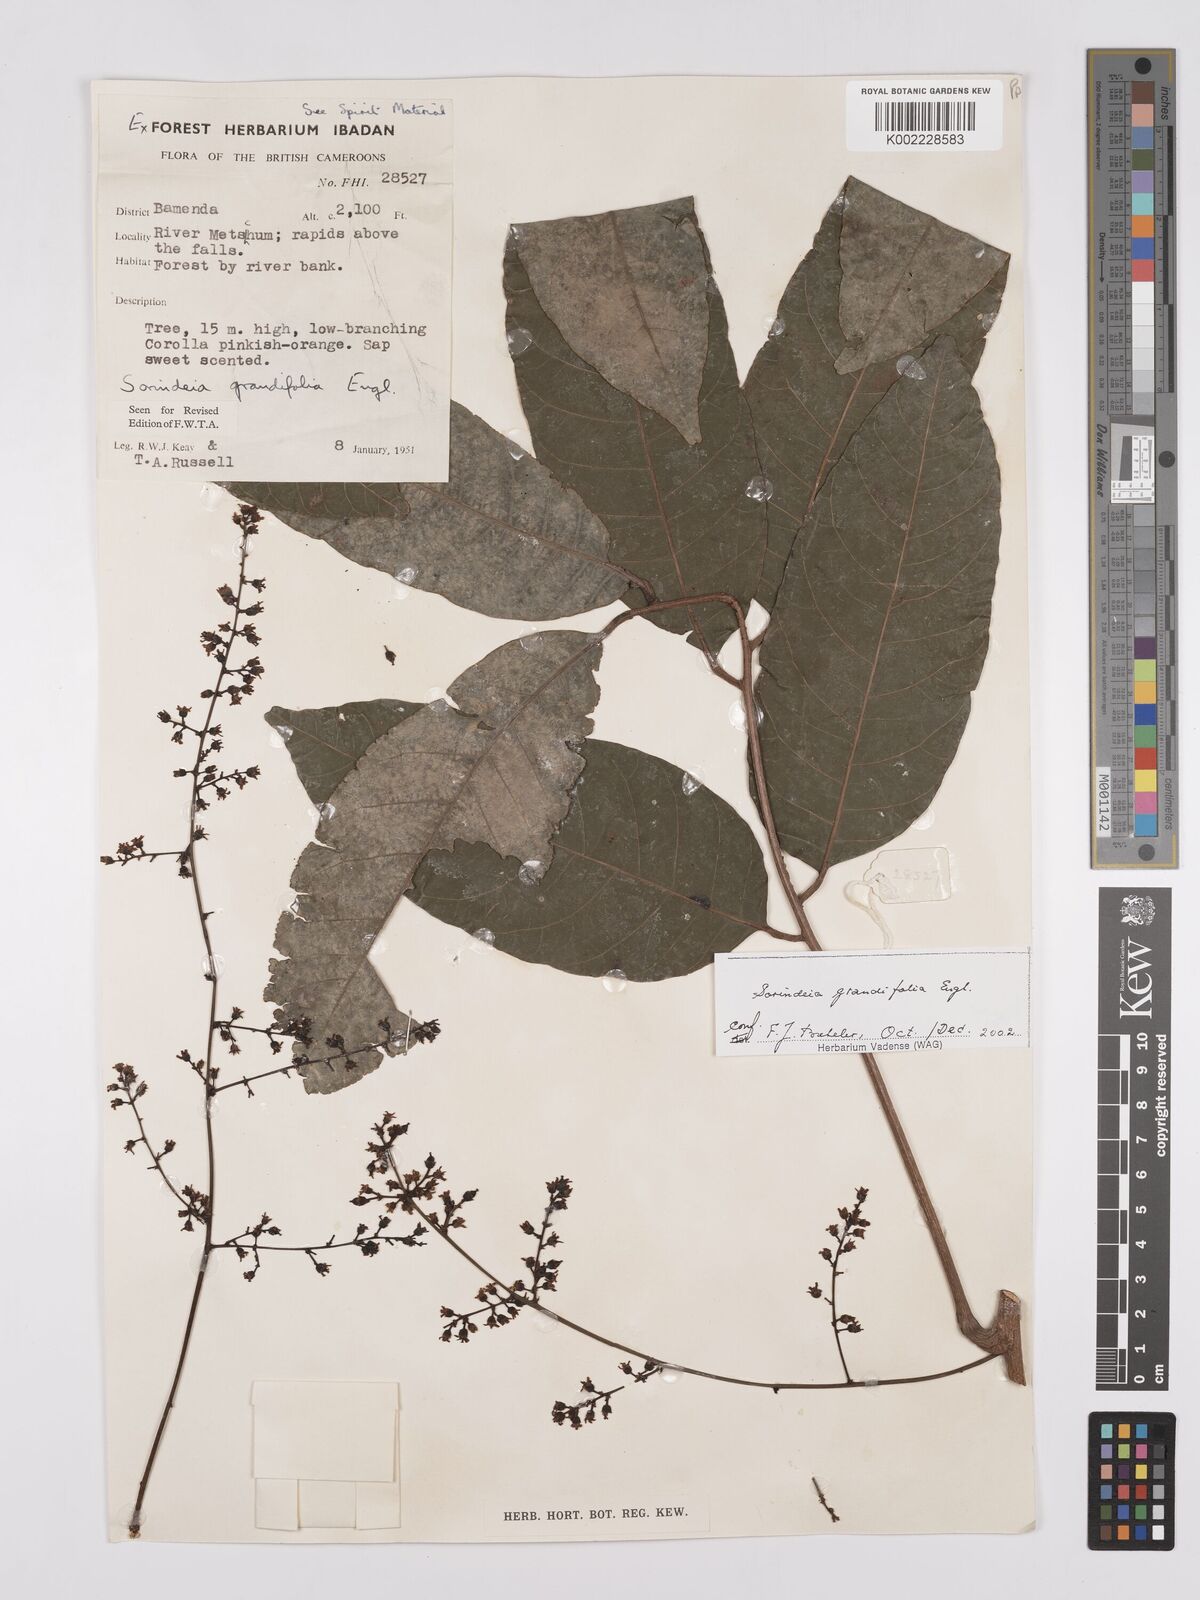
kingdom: Plantae
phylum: Tracheophyta
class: Magnoliopsida
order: Sapindales
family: Anacardiaceae
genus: Sorindeia
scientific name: Sorindeia grandifolia
